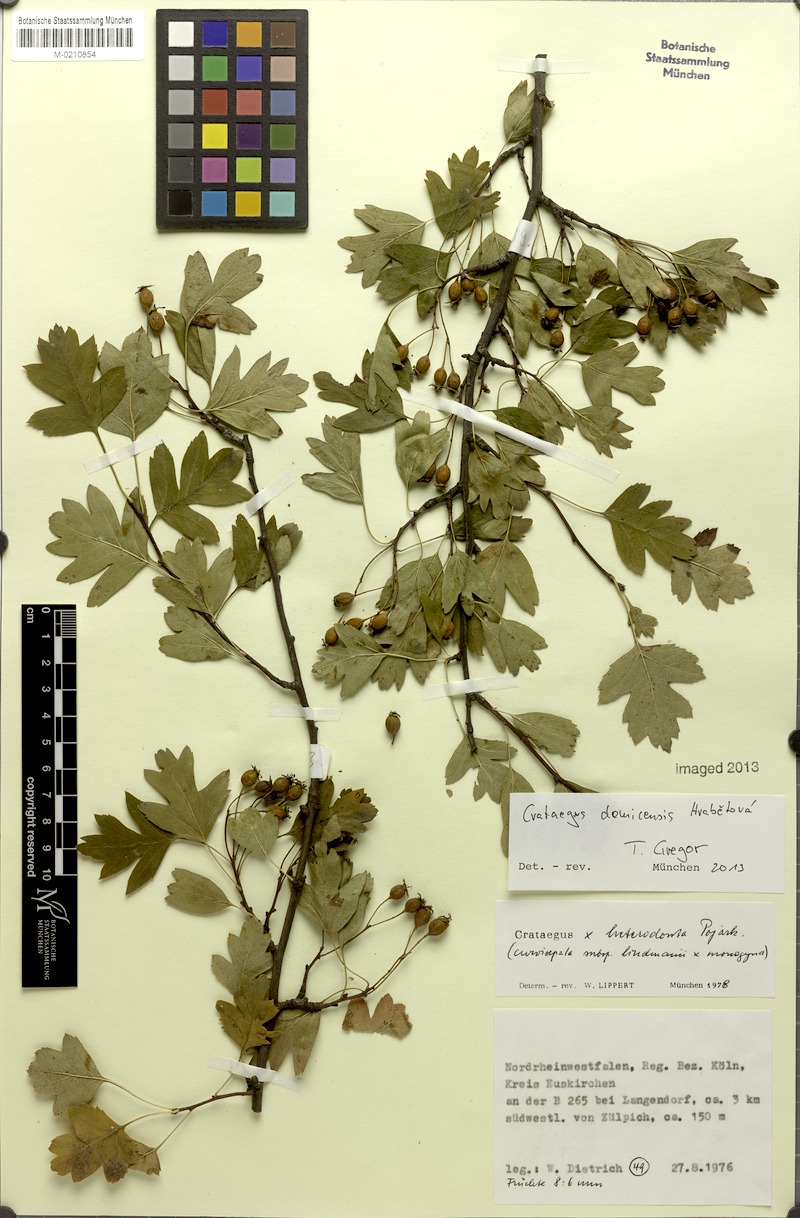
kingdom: Plantae
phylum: Tracheophyta
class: Magnoliopsida
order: Rosales
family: Rosaceae
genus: Crataegus
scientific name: Crataegus domicensis
